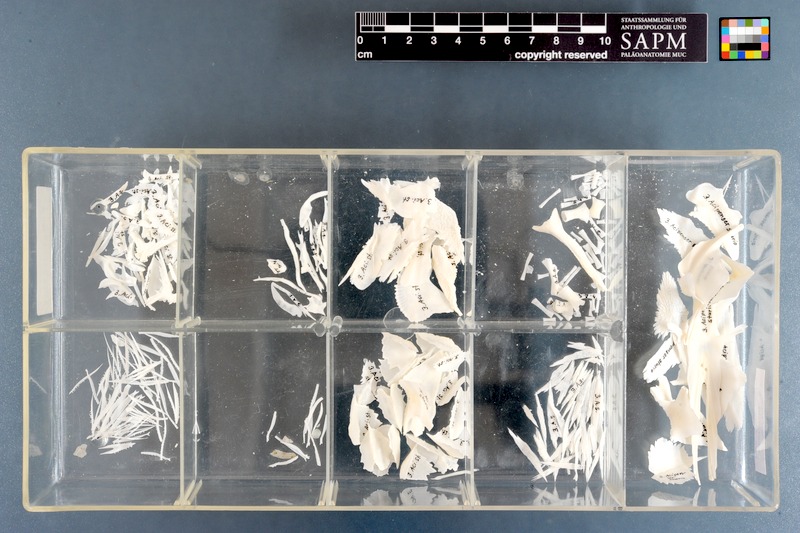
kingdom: Animalia
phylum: Chordata
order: Acipenseriformes
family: Acipenseridae
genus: Acipenser
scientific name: Acipenser sturio
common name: Sturgeon
